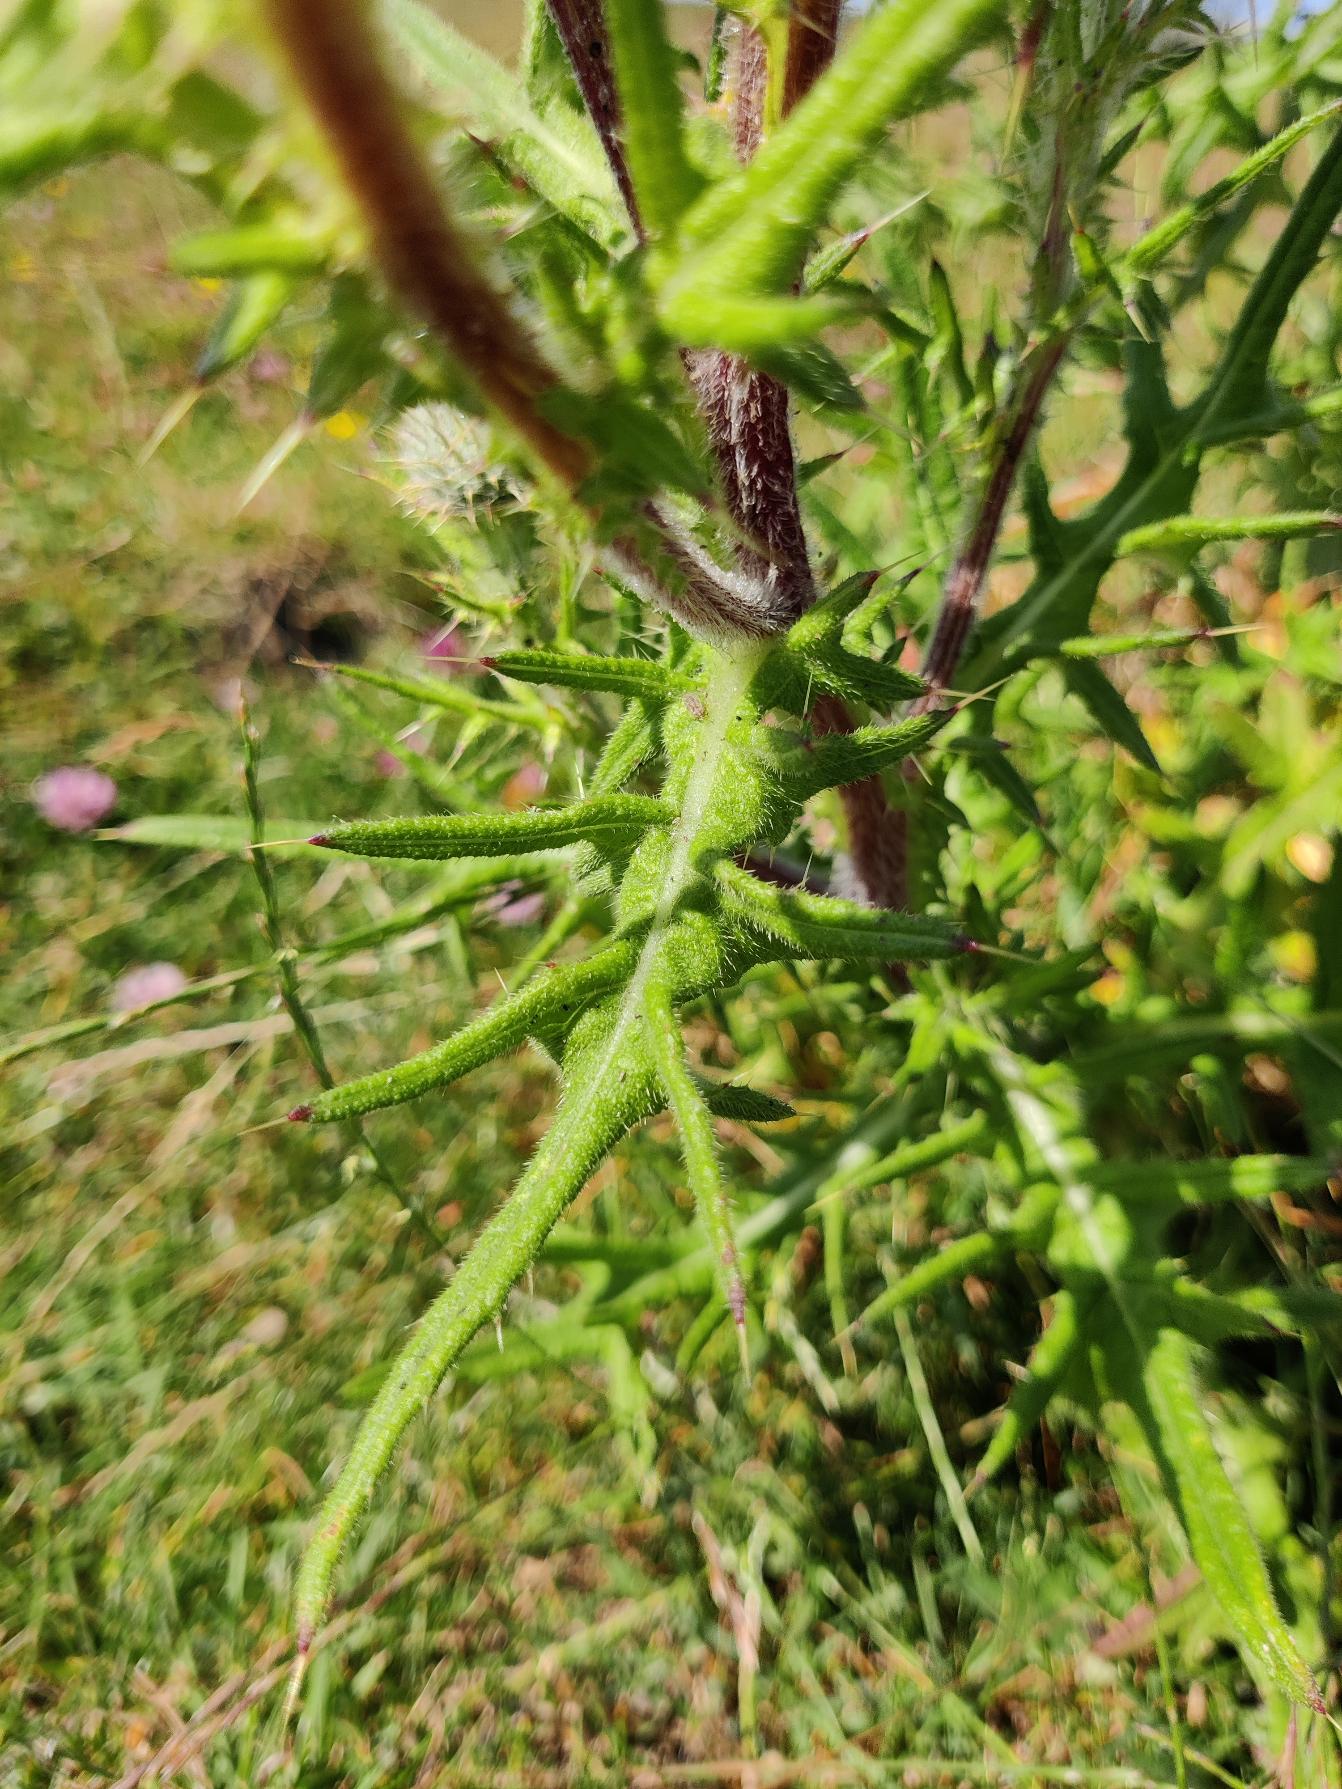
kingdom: Plantae
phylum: Tracheophyta
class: Magnoliopsida
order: Asterales
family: Asteraceae
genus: Cirsium
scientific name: Cirsium vulgare
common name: Horse-tidsel
